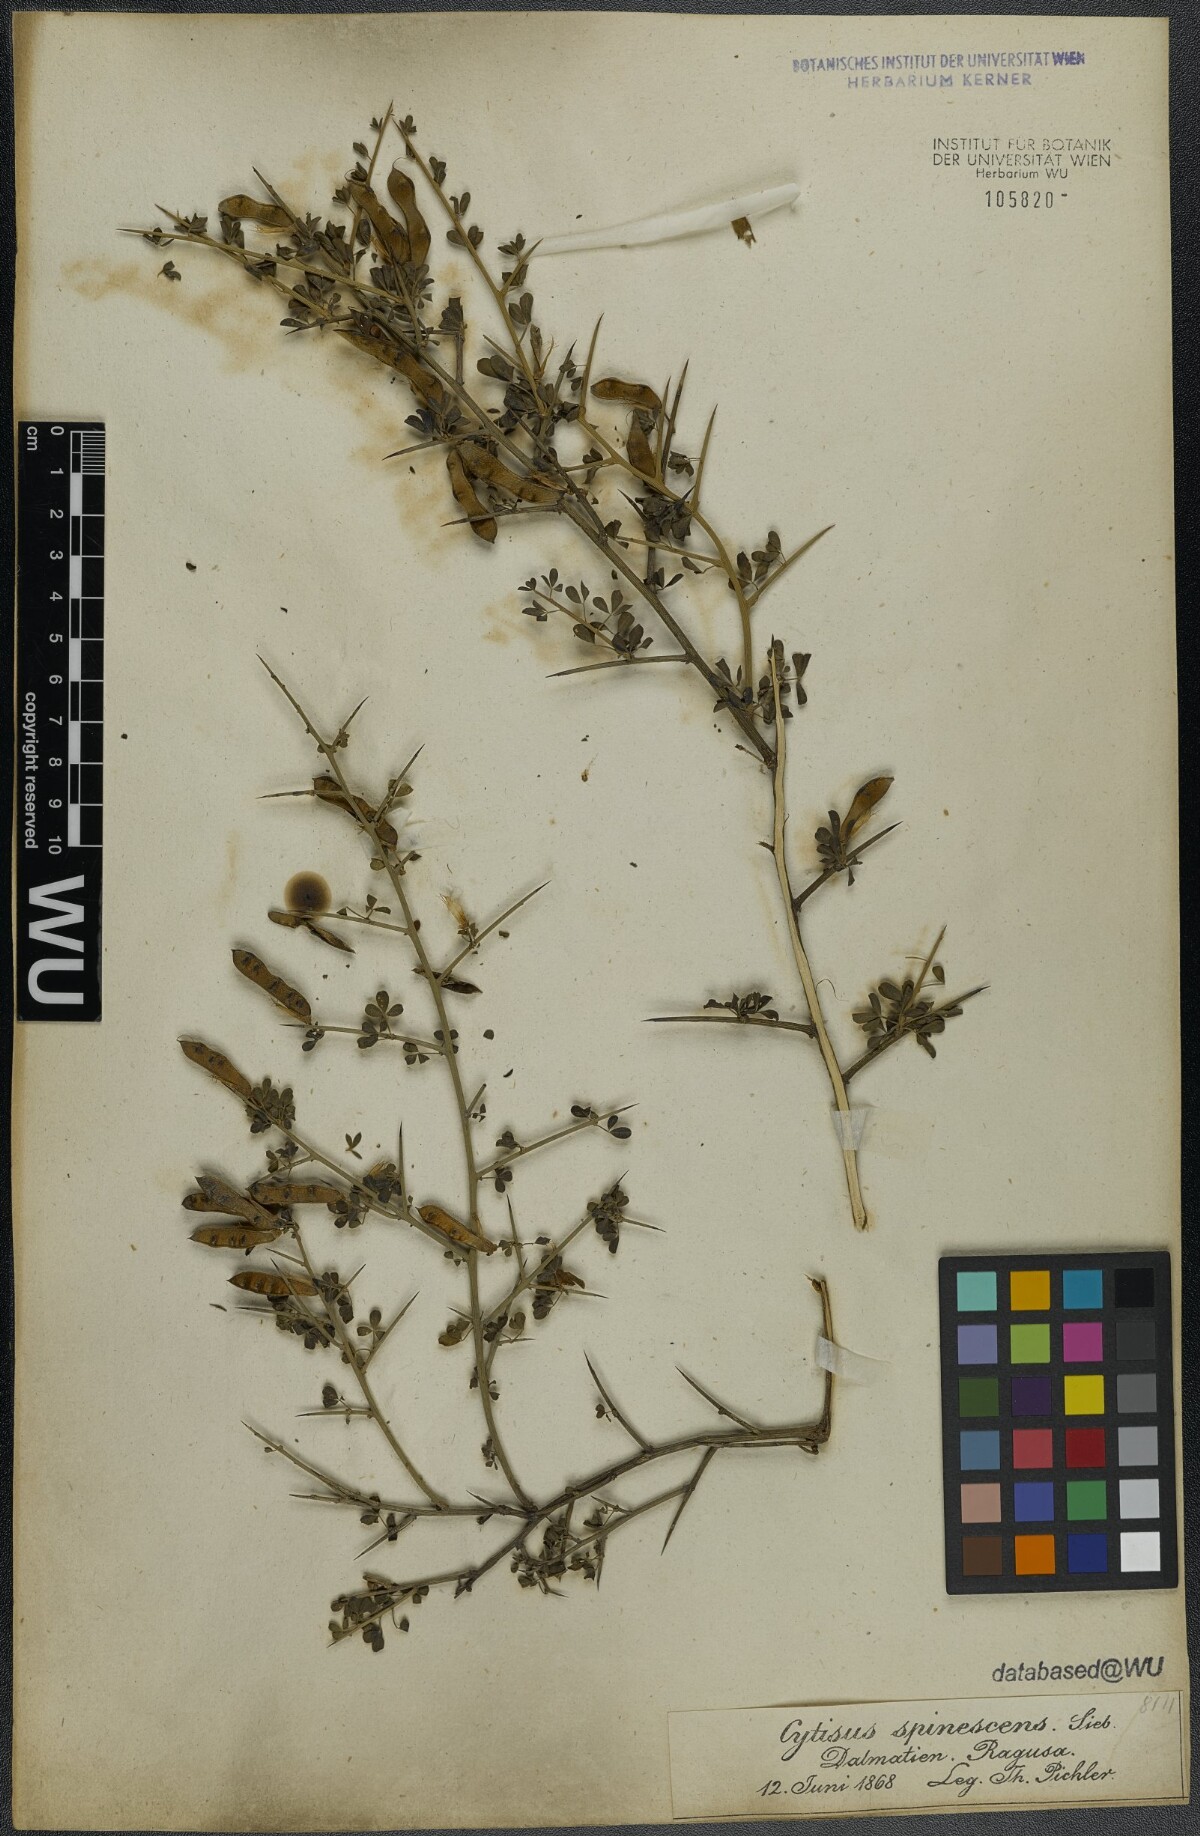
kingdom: Plantae
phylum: Tracheophyta
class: Magnoliopsida
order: Fabales
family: Fabaceae
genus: Chamaecytisus
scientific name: Chamaecytisus spinescens
